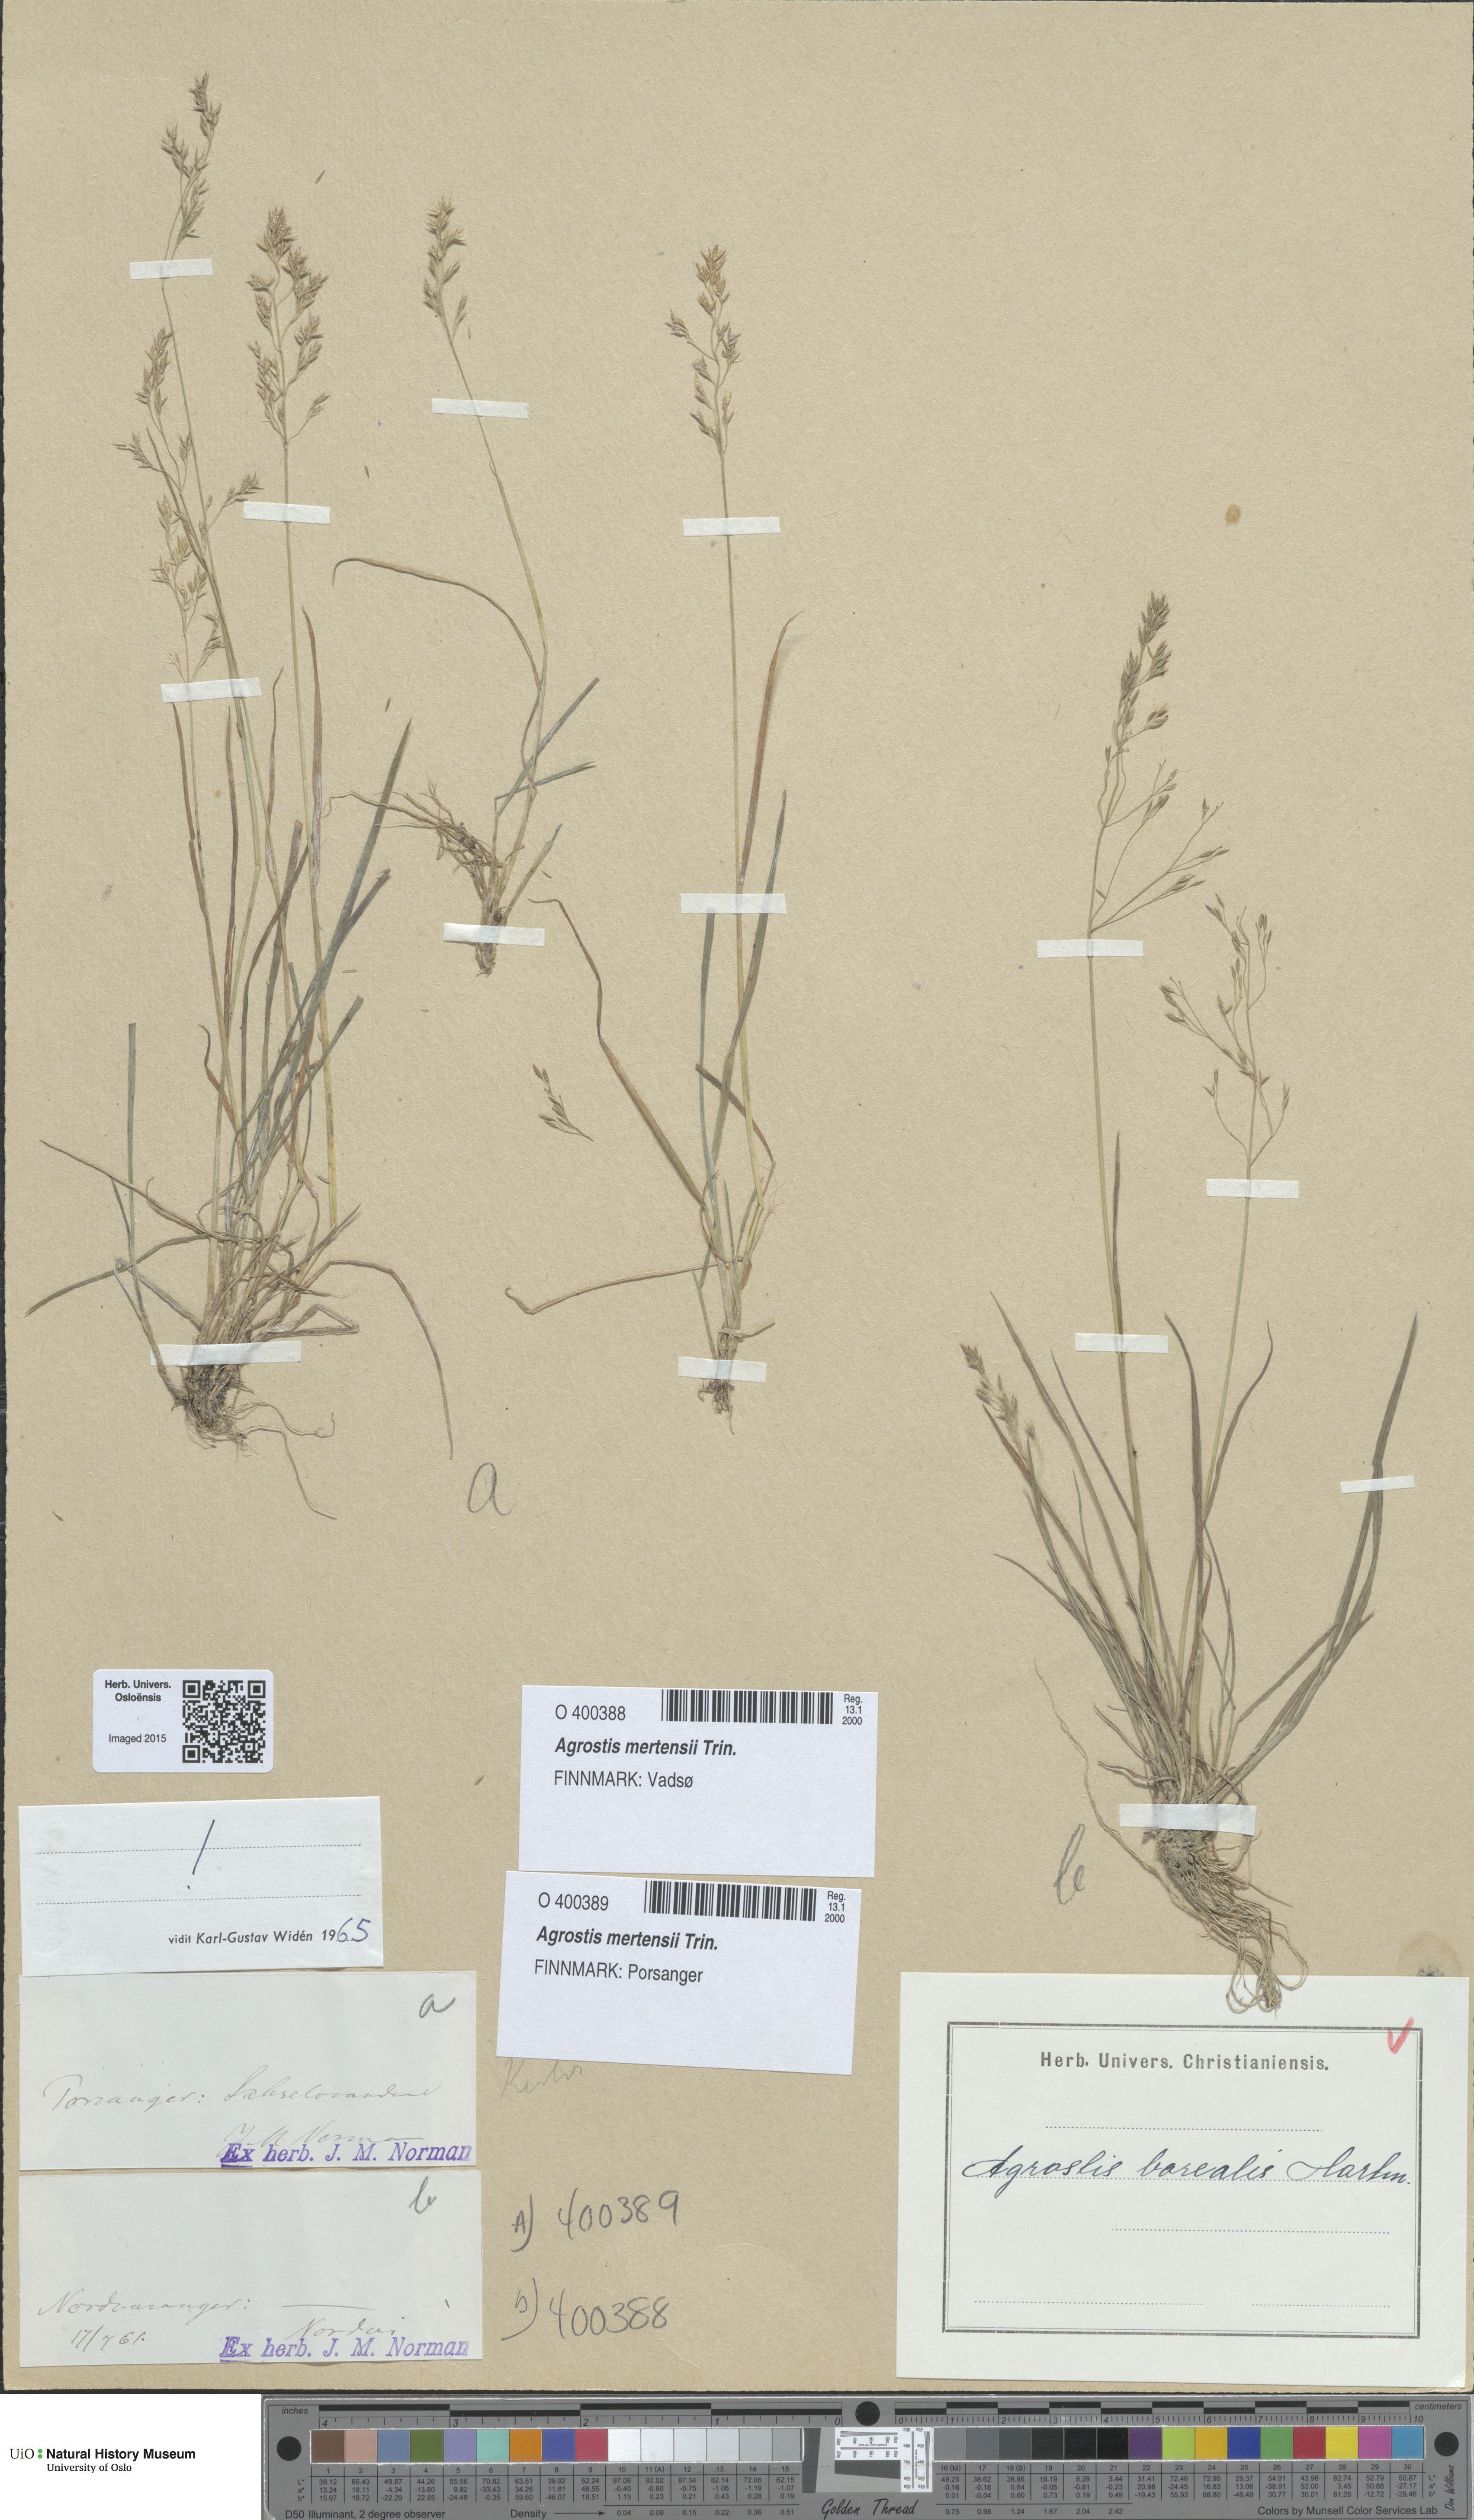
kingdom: Plantae
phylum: Tracheophyta
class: Liliopsida
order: Poales
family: Poaceae
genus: Agrostis
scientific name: Agrostis mertensii
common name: Northern bent
